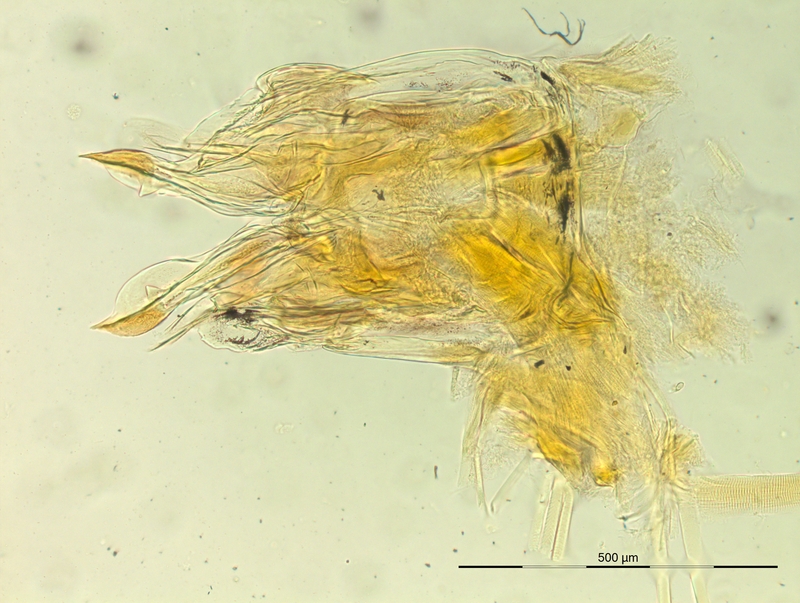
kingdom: Animalia
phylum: Arthropoda
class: Diplopoda
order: Chordeumatida
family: Opisthocheiridae
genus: Marquetia
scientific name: Marquetia pyrenaicum
